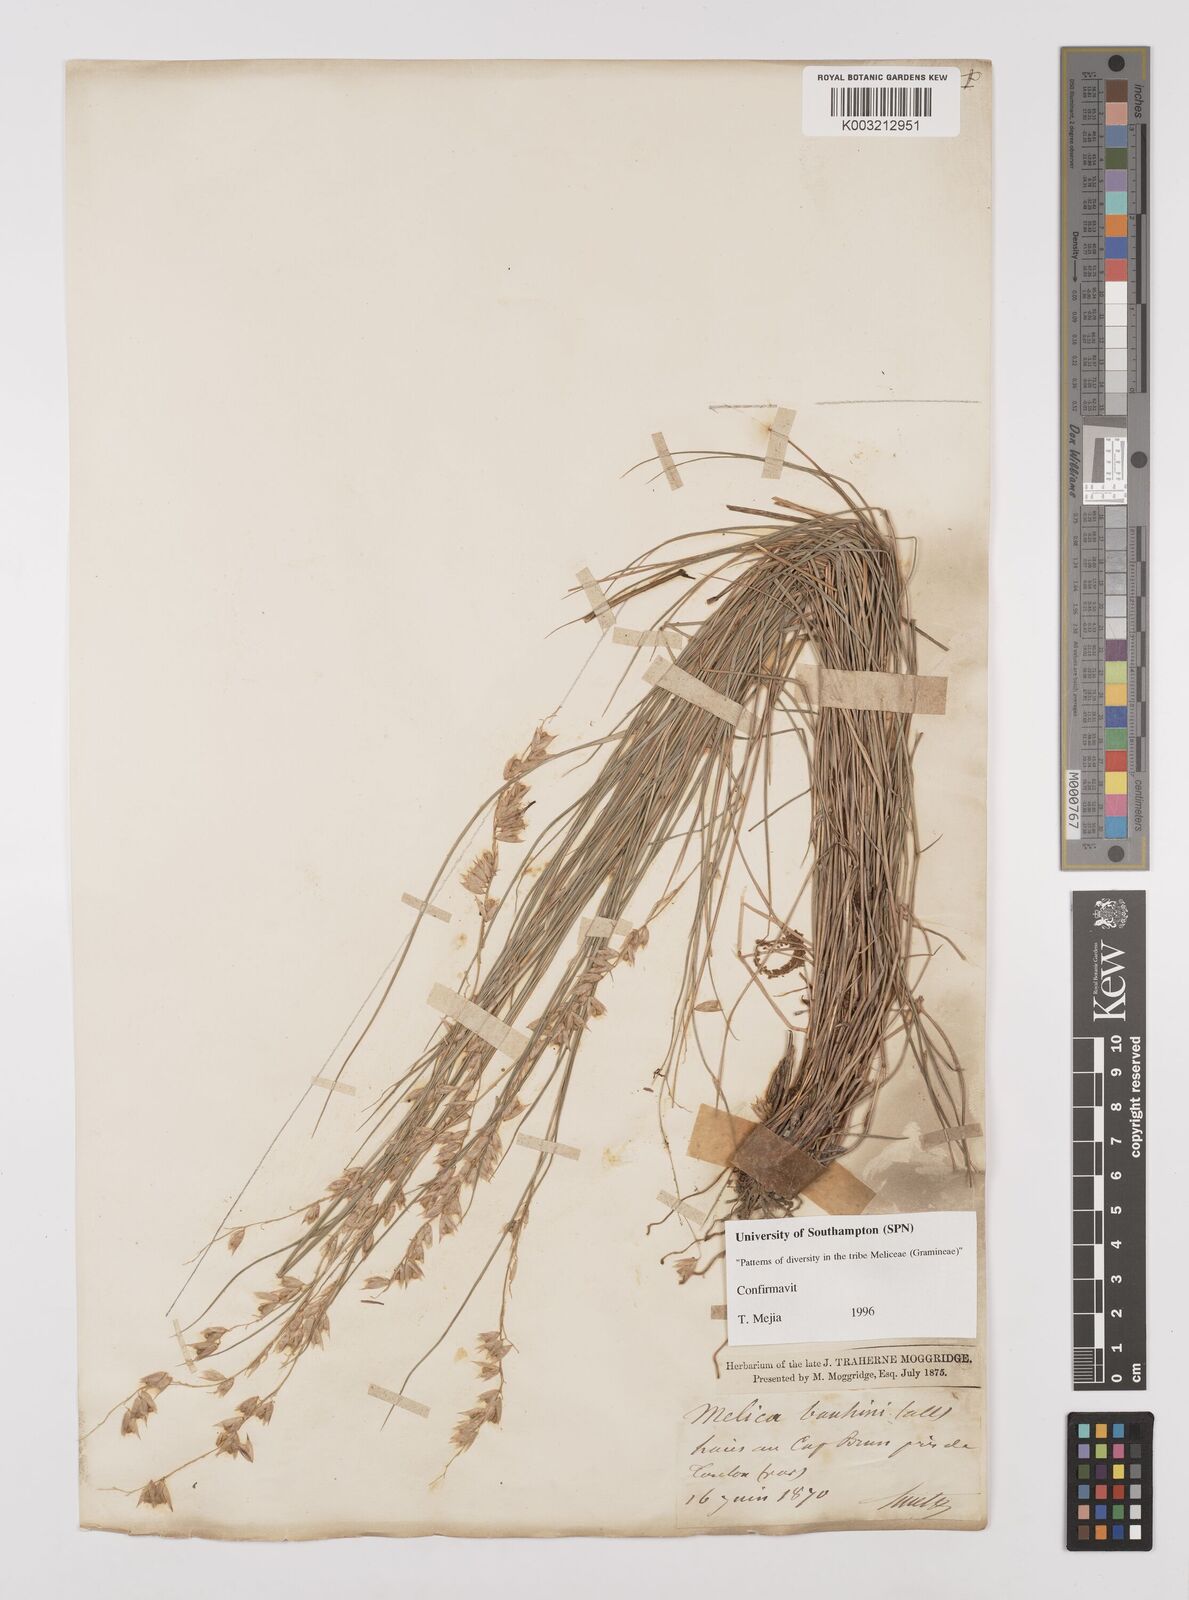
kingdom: Plantae
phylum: Tracheophyta
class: Liliopsida
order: Poales
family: Poaceae
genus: Melica
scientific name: Melica amethystina
